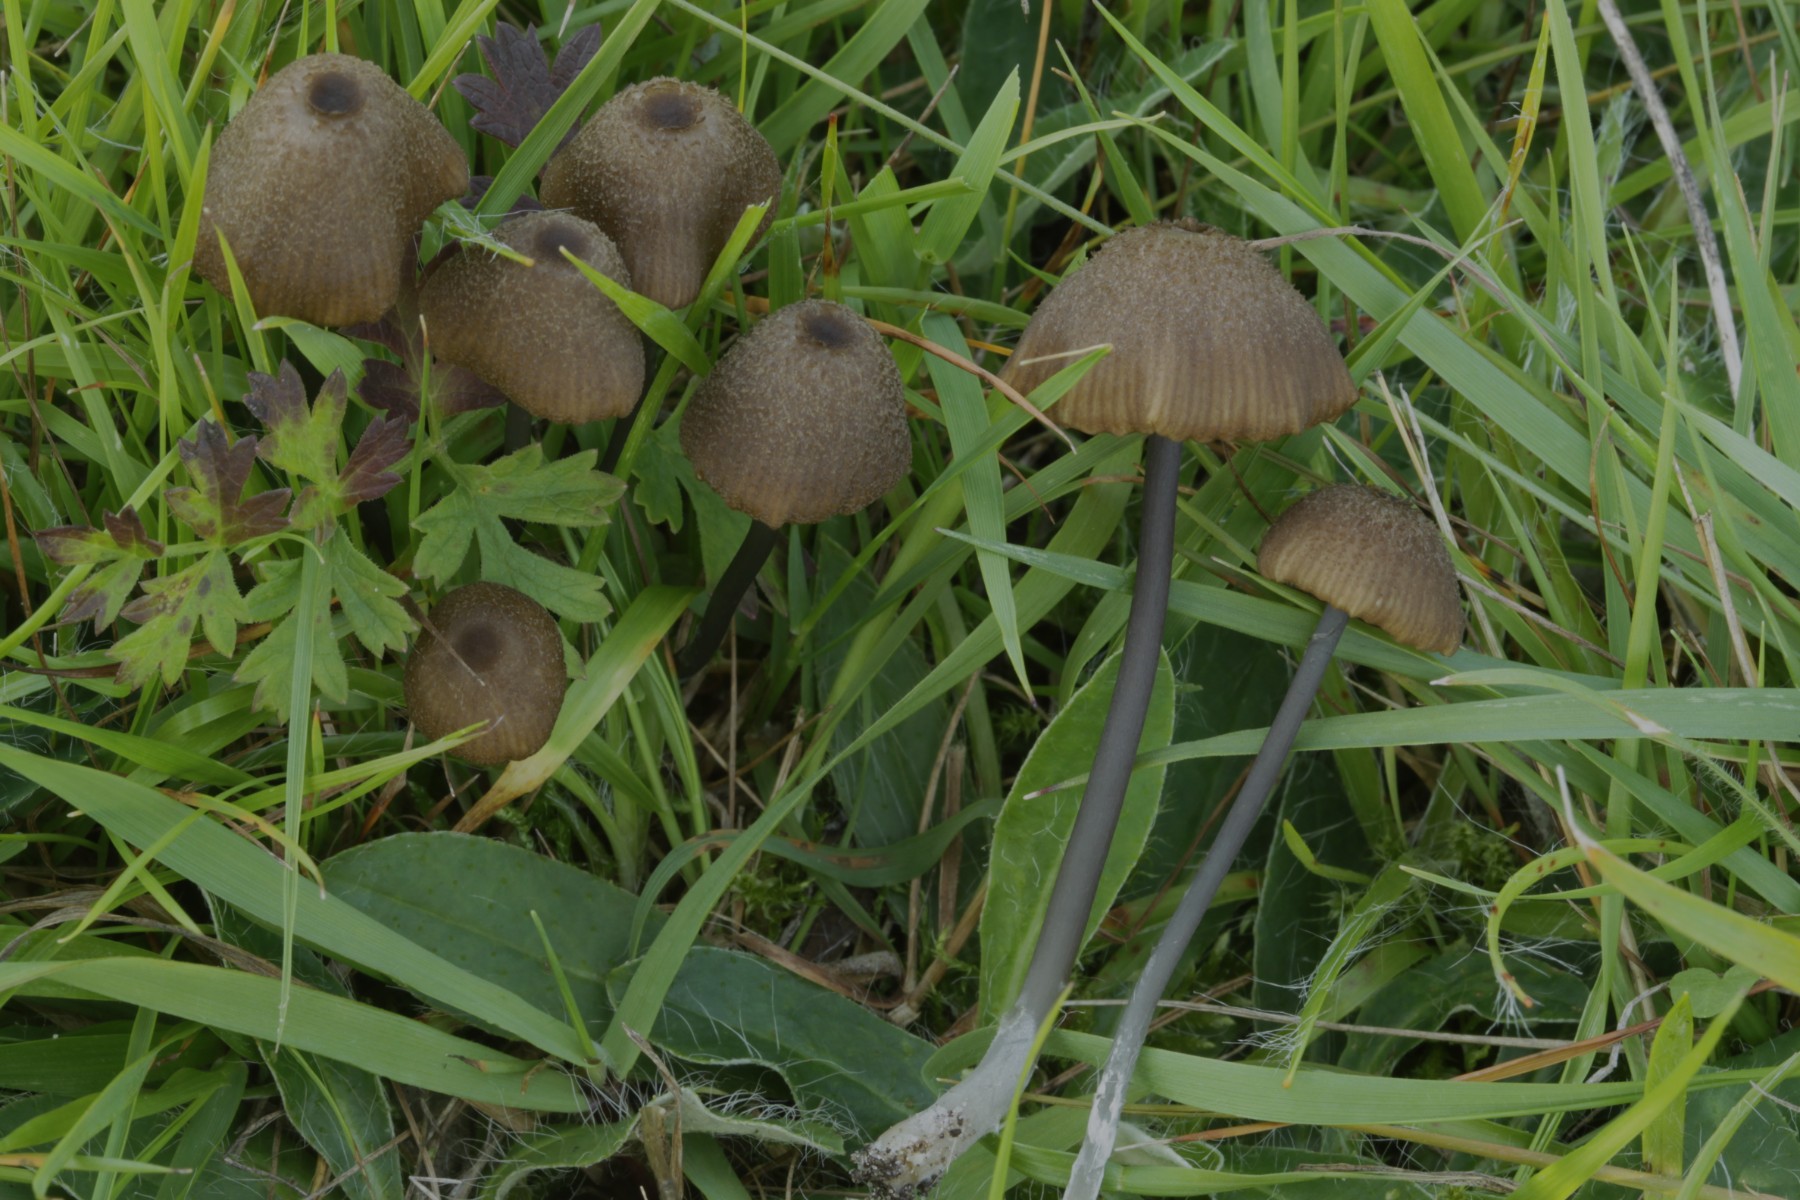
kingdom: Fungi
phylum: Basidiomycota
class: Agaricomycetes
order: Agaricales
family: Entolomataceae
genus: Entoloma
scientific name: Entoloma
